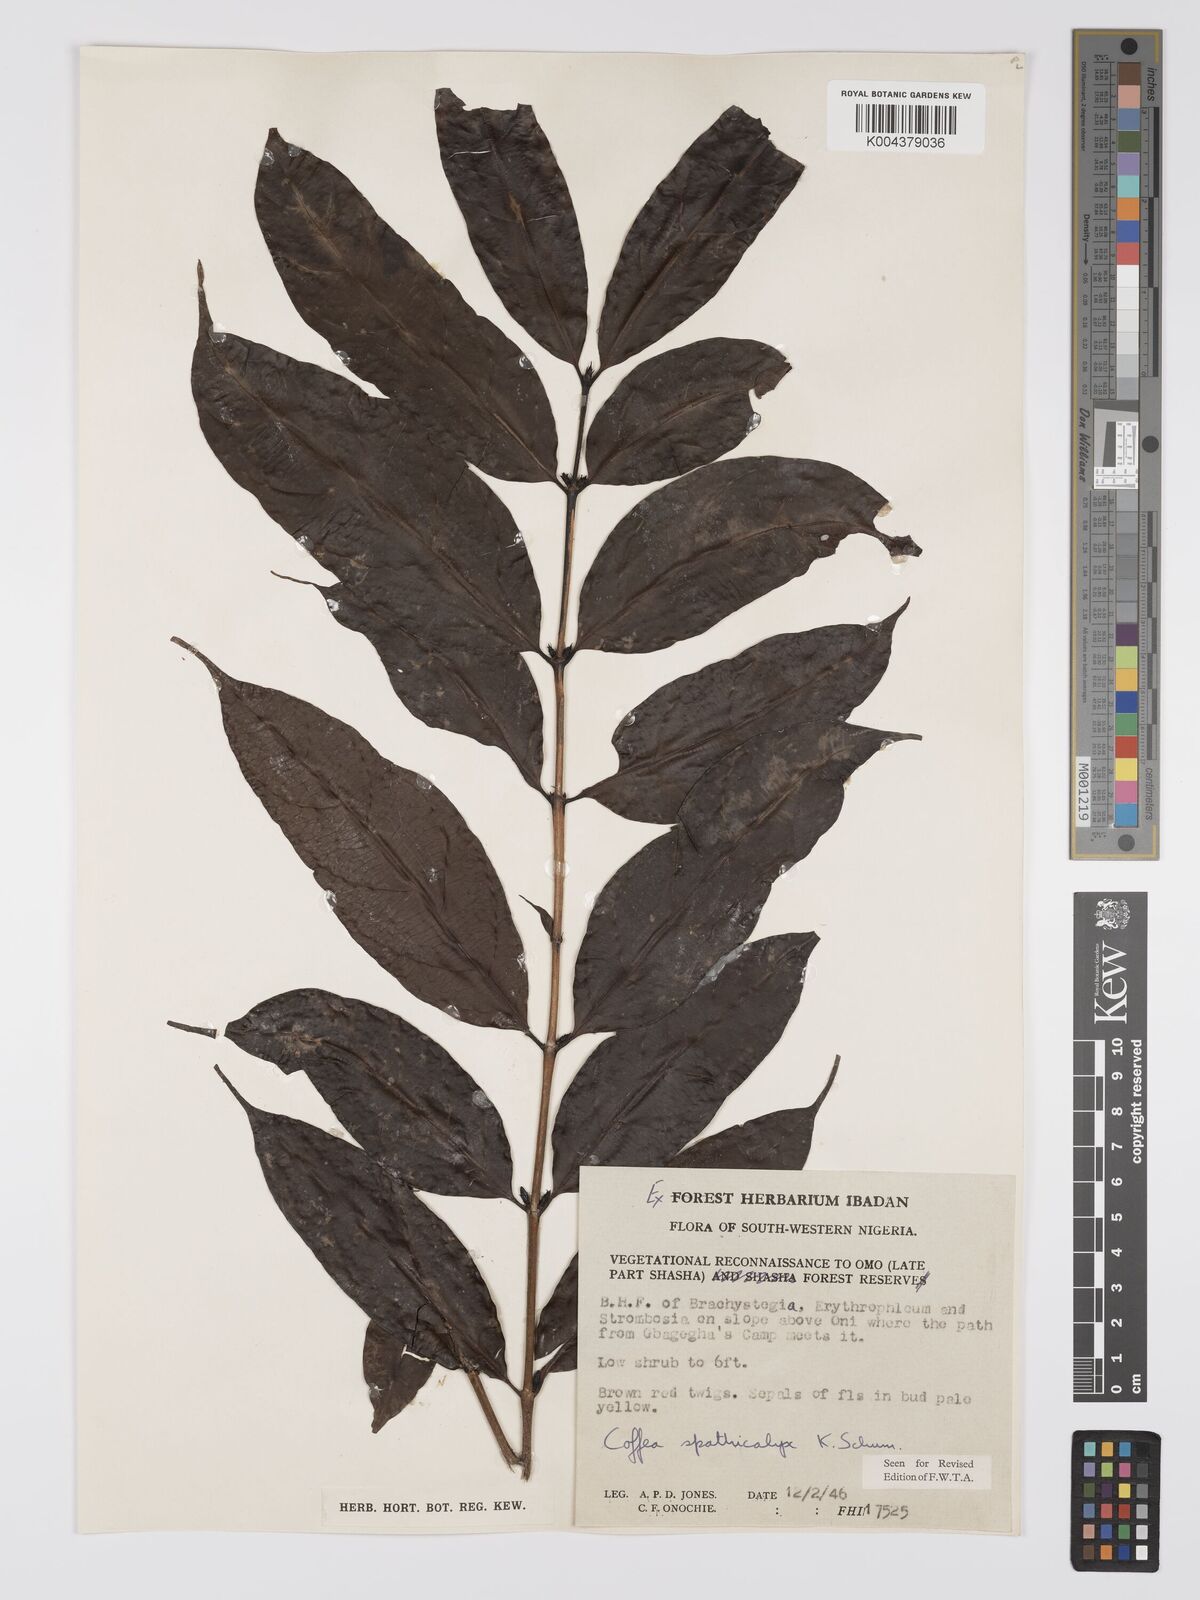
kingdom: Plantae
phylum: Tracheophyta
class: Magnoliopsida
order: Gentianales
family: Rubiaceae
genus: Calycosiphonia
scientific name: Calycosiphonia spathicalyx
